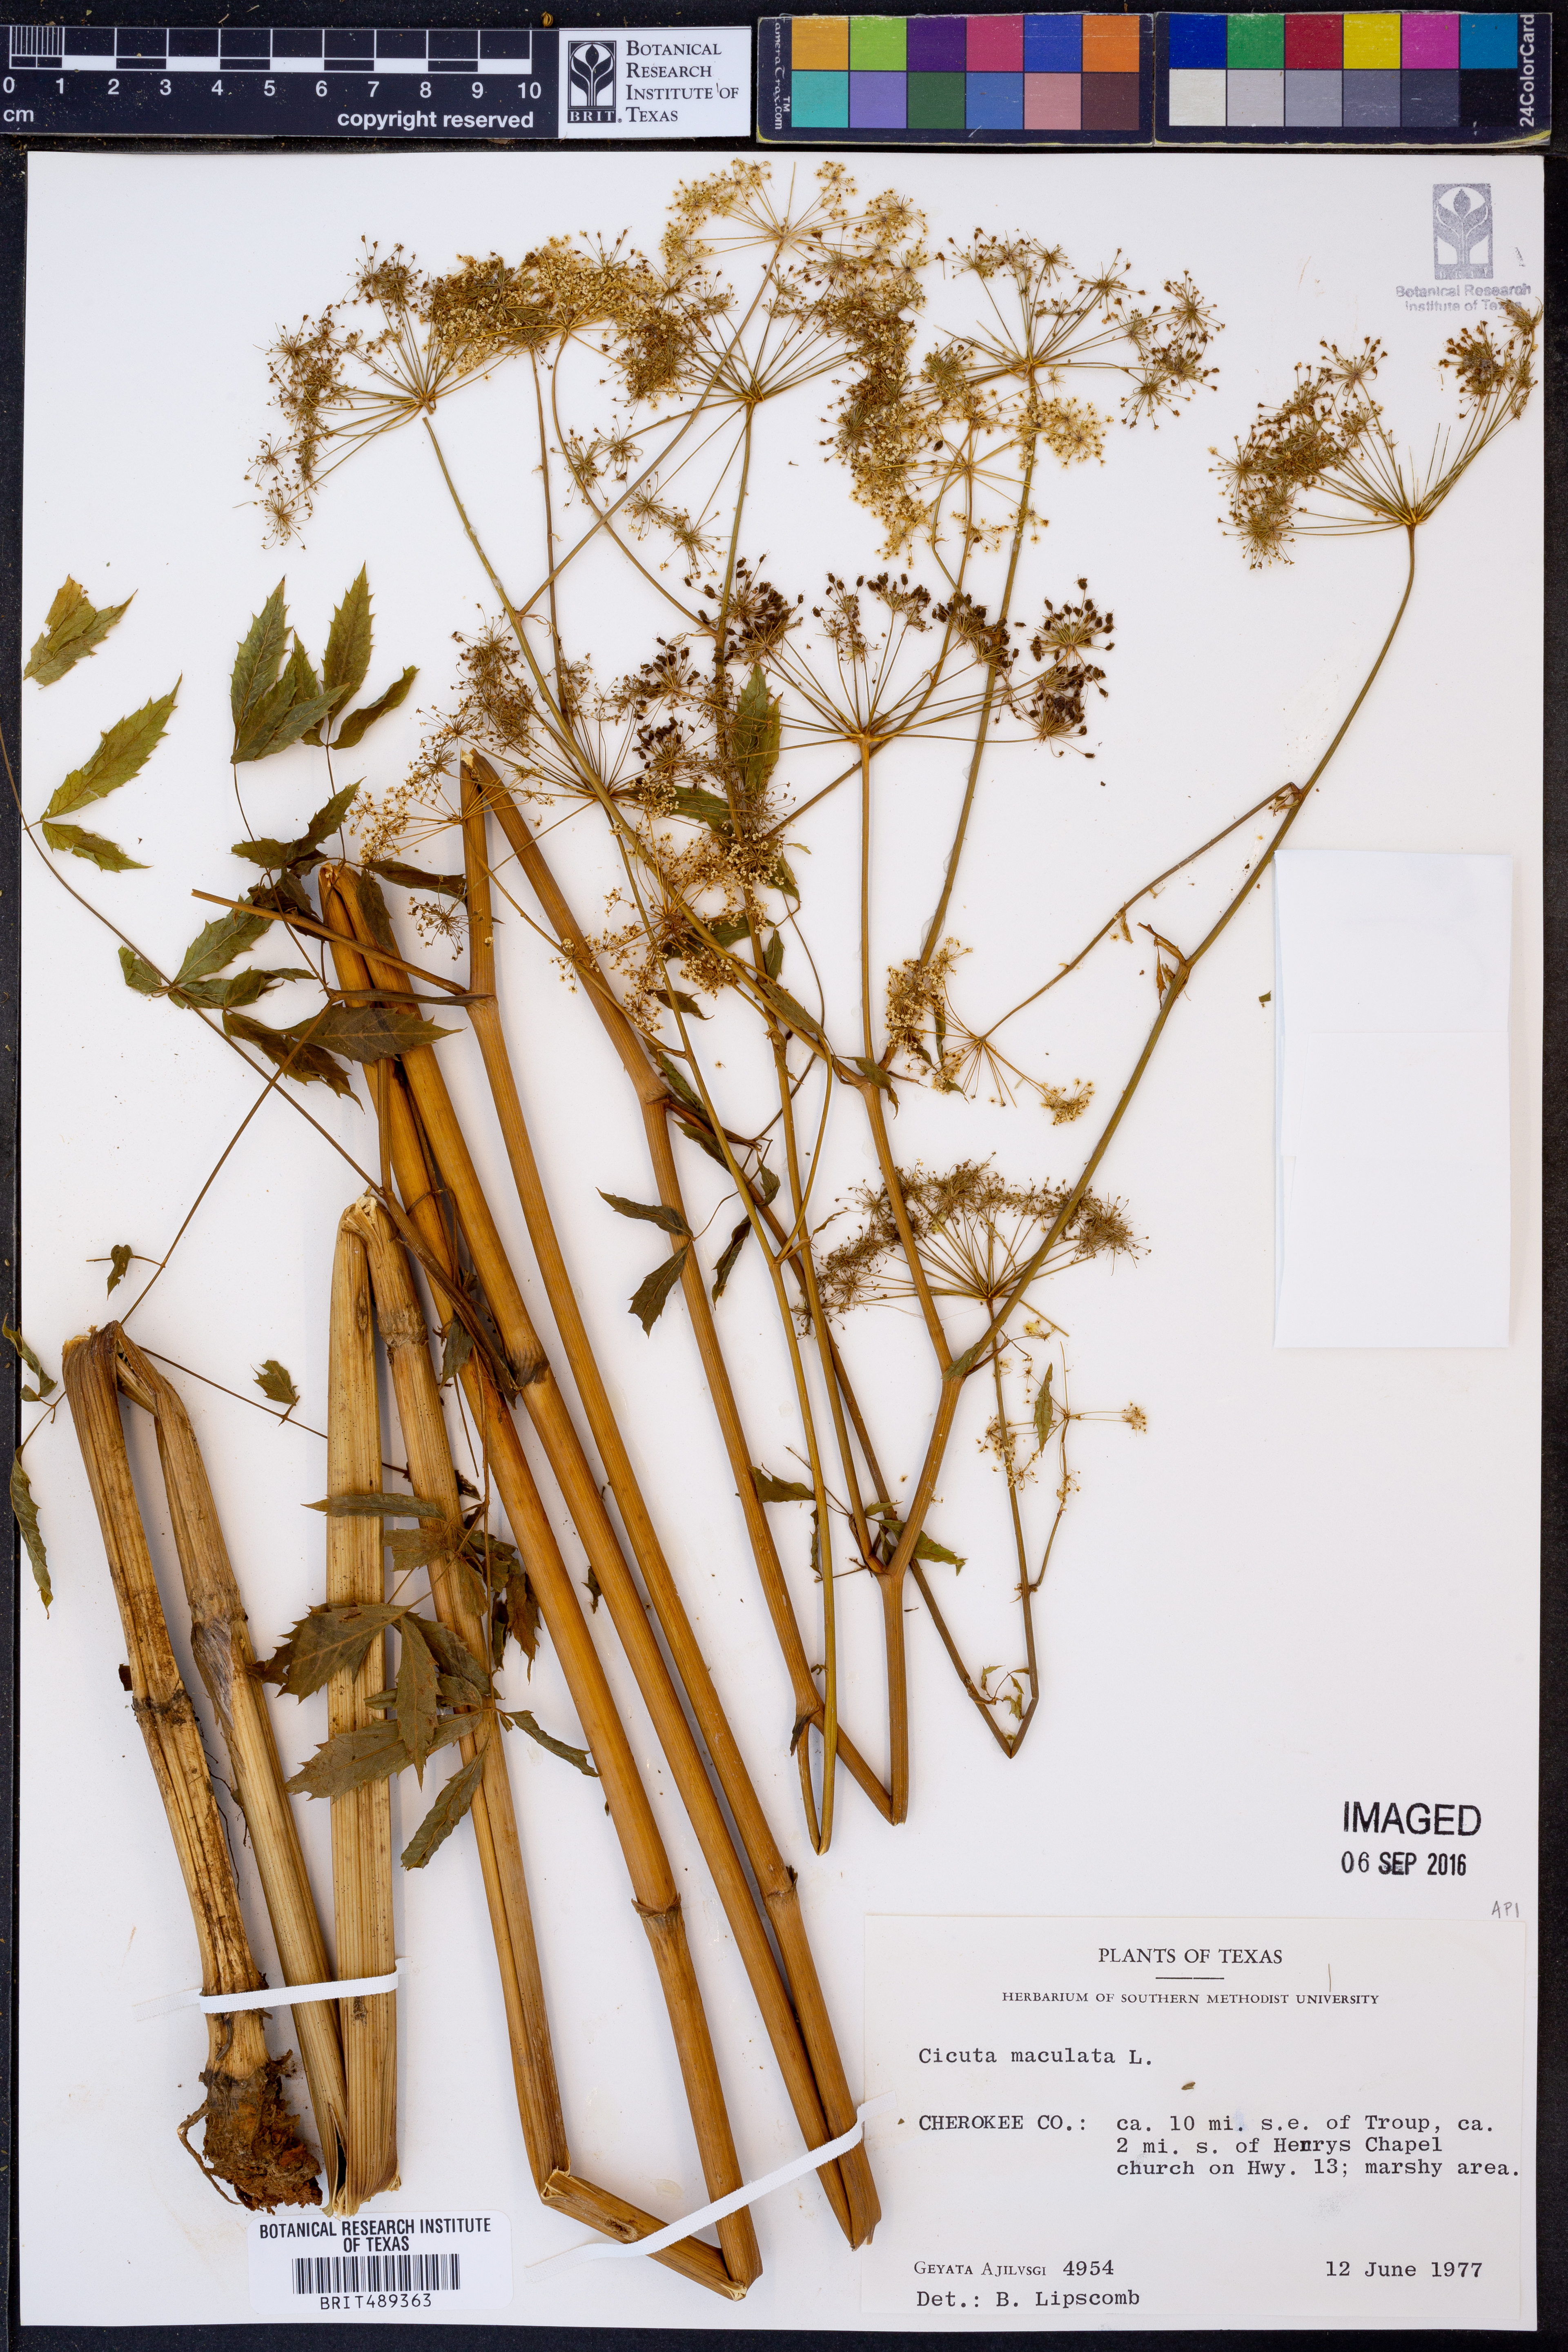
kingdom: Plantae
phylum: Tracheophyta
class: Magnoliopsida
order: Apiales
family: Apiaceae
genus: Cicuta
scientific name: Cicuta maculata
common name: Spotted cowbane
